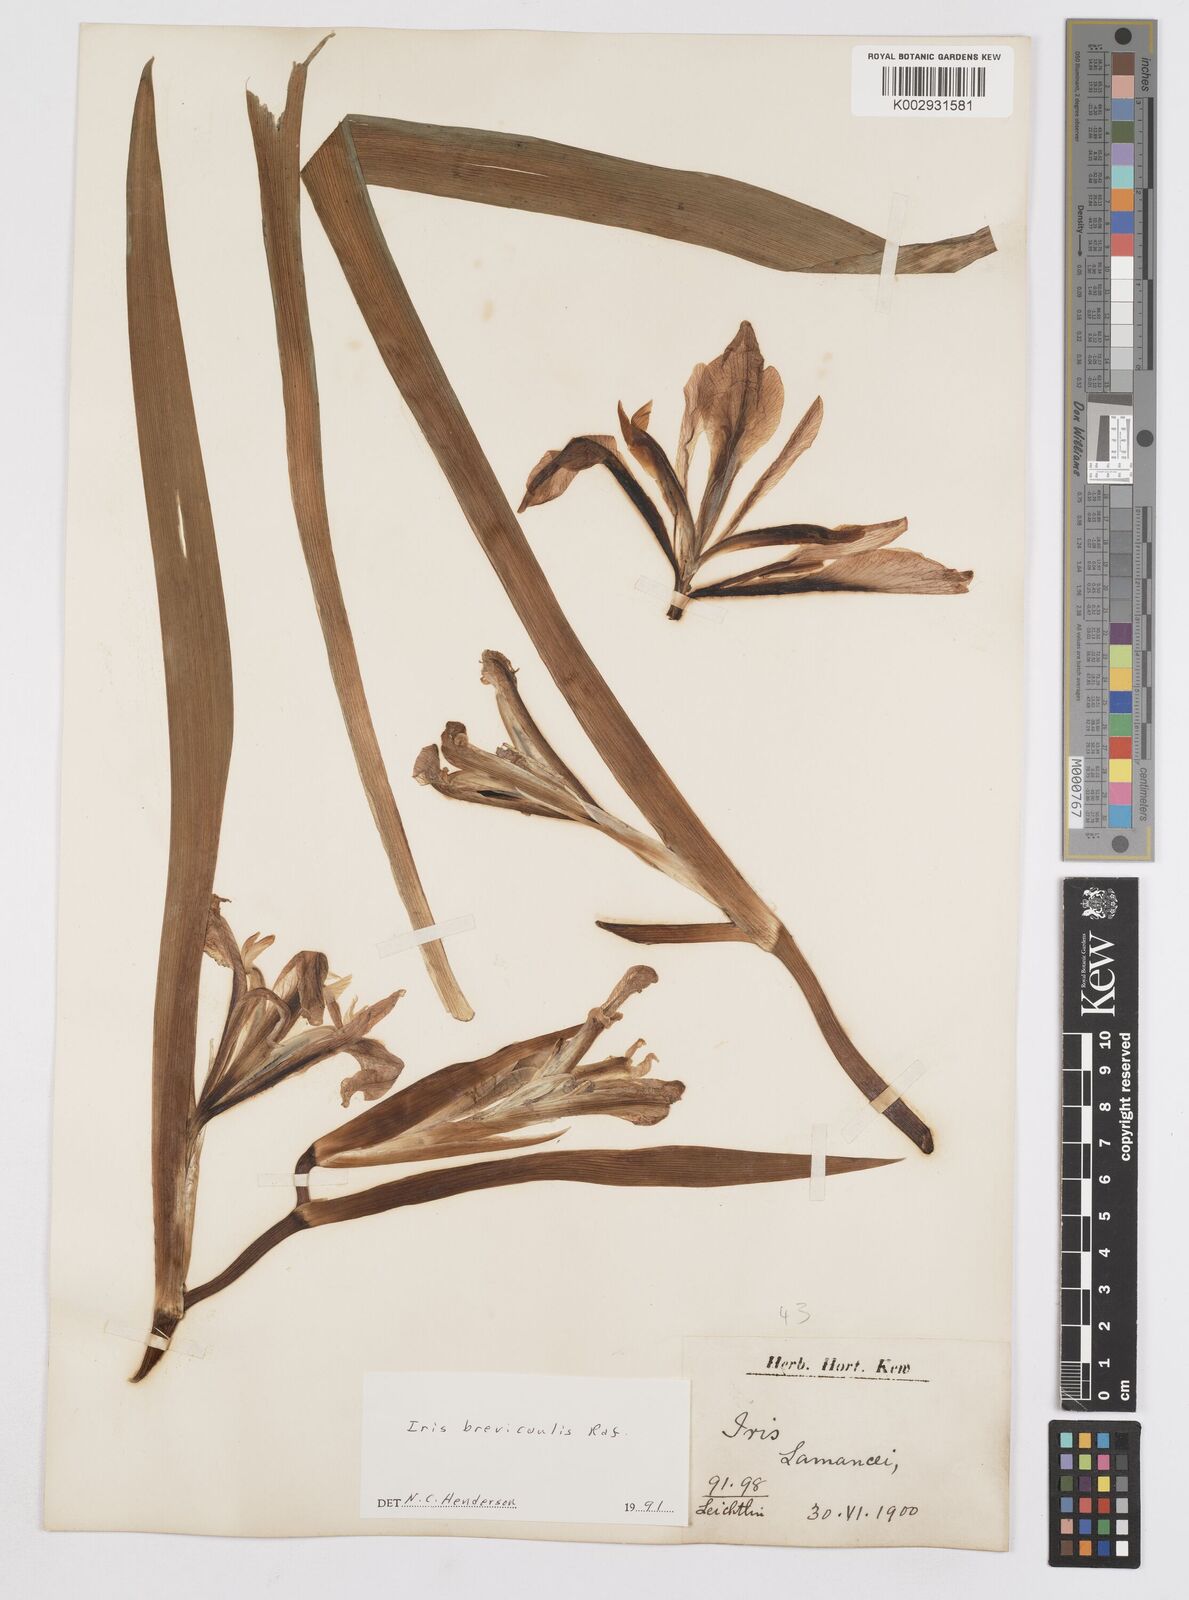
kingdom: Plantae
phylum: Tracheophyta
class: Liliopsida
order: Asparagales
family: Iridaceae
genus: Iris
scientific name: Iris brevicaulis
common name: Zigzag iris
